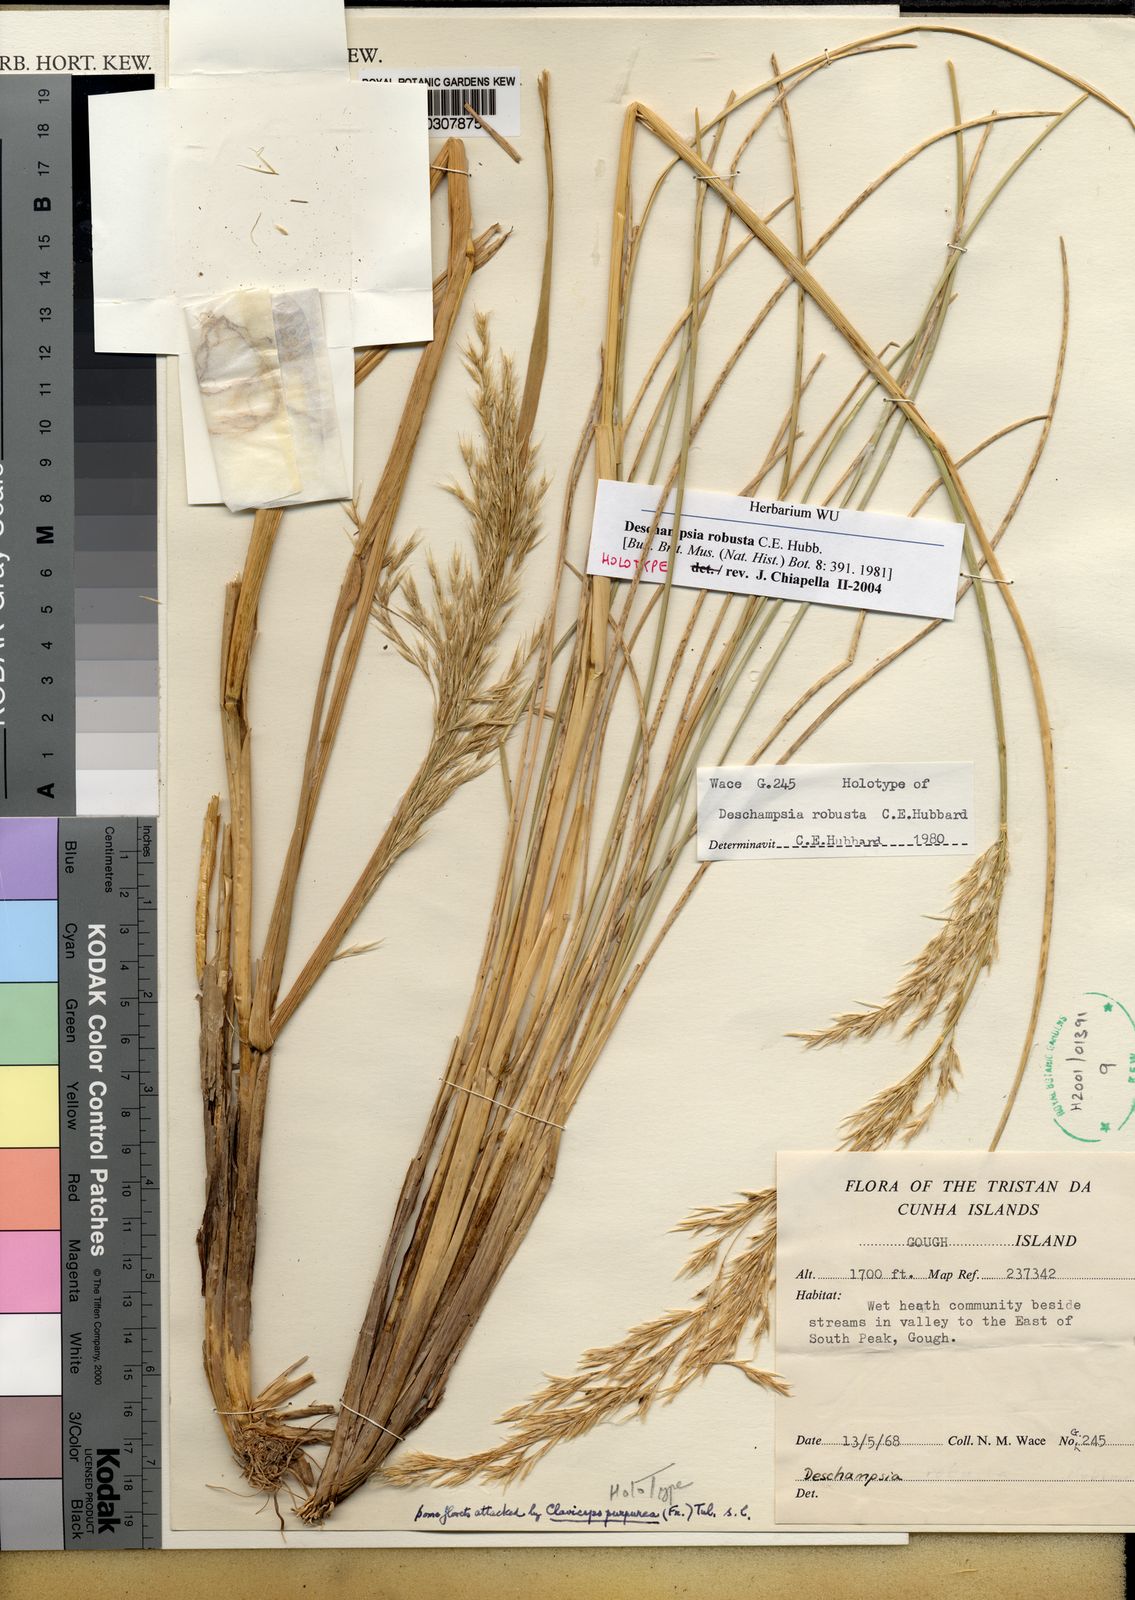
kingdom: Plantae
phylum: Tracheophyta
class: Liliopsida
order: Poales
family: Poaceae
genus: Deschampsia
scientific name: Deschampsia robusta
